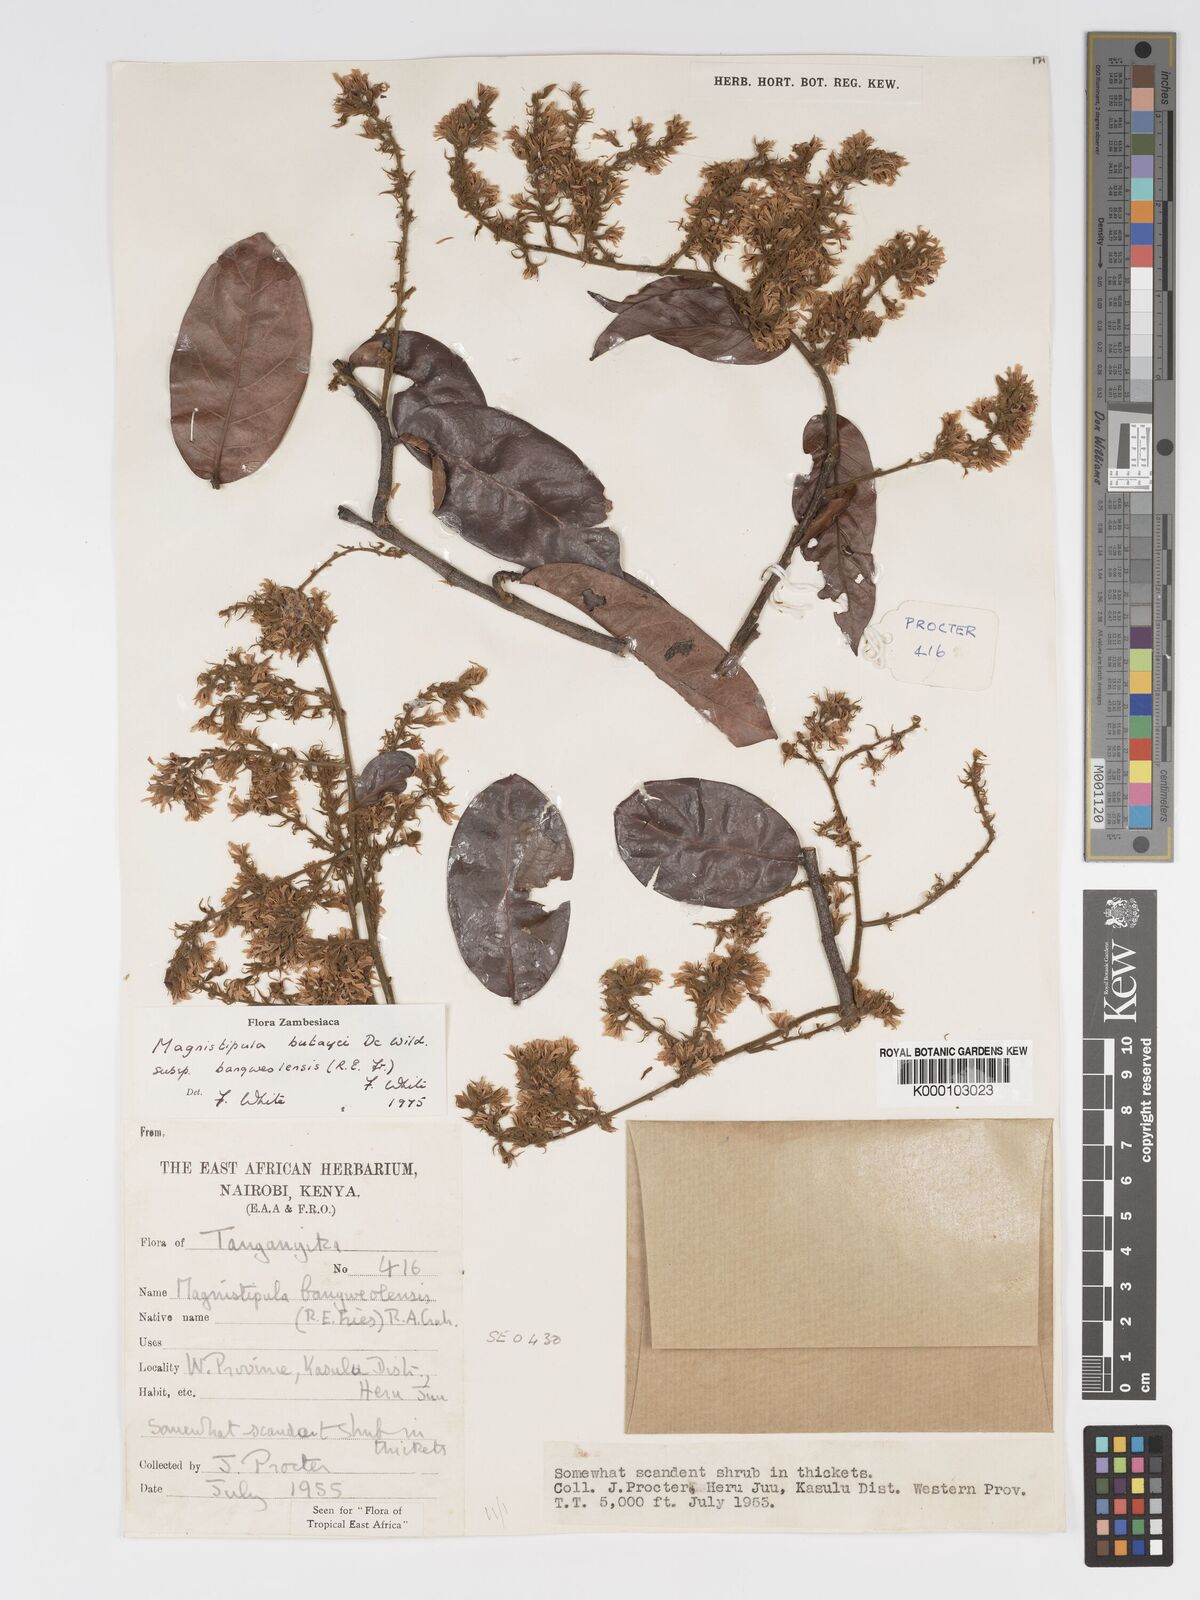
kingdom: Plantae
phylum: Tracheophyta
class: Magnoliopsida
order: Malpighiales
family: Chrysobalanaceae
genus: Magnistipula
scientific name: Magnistipula butayei
